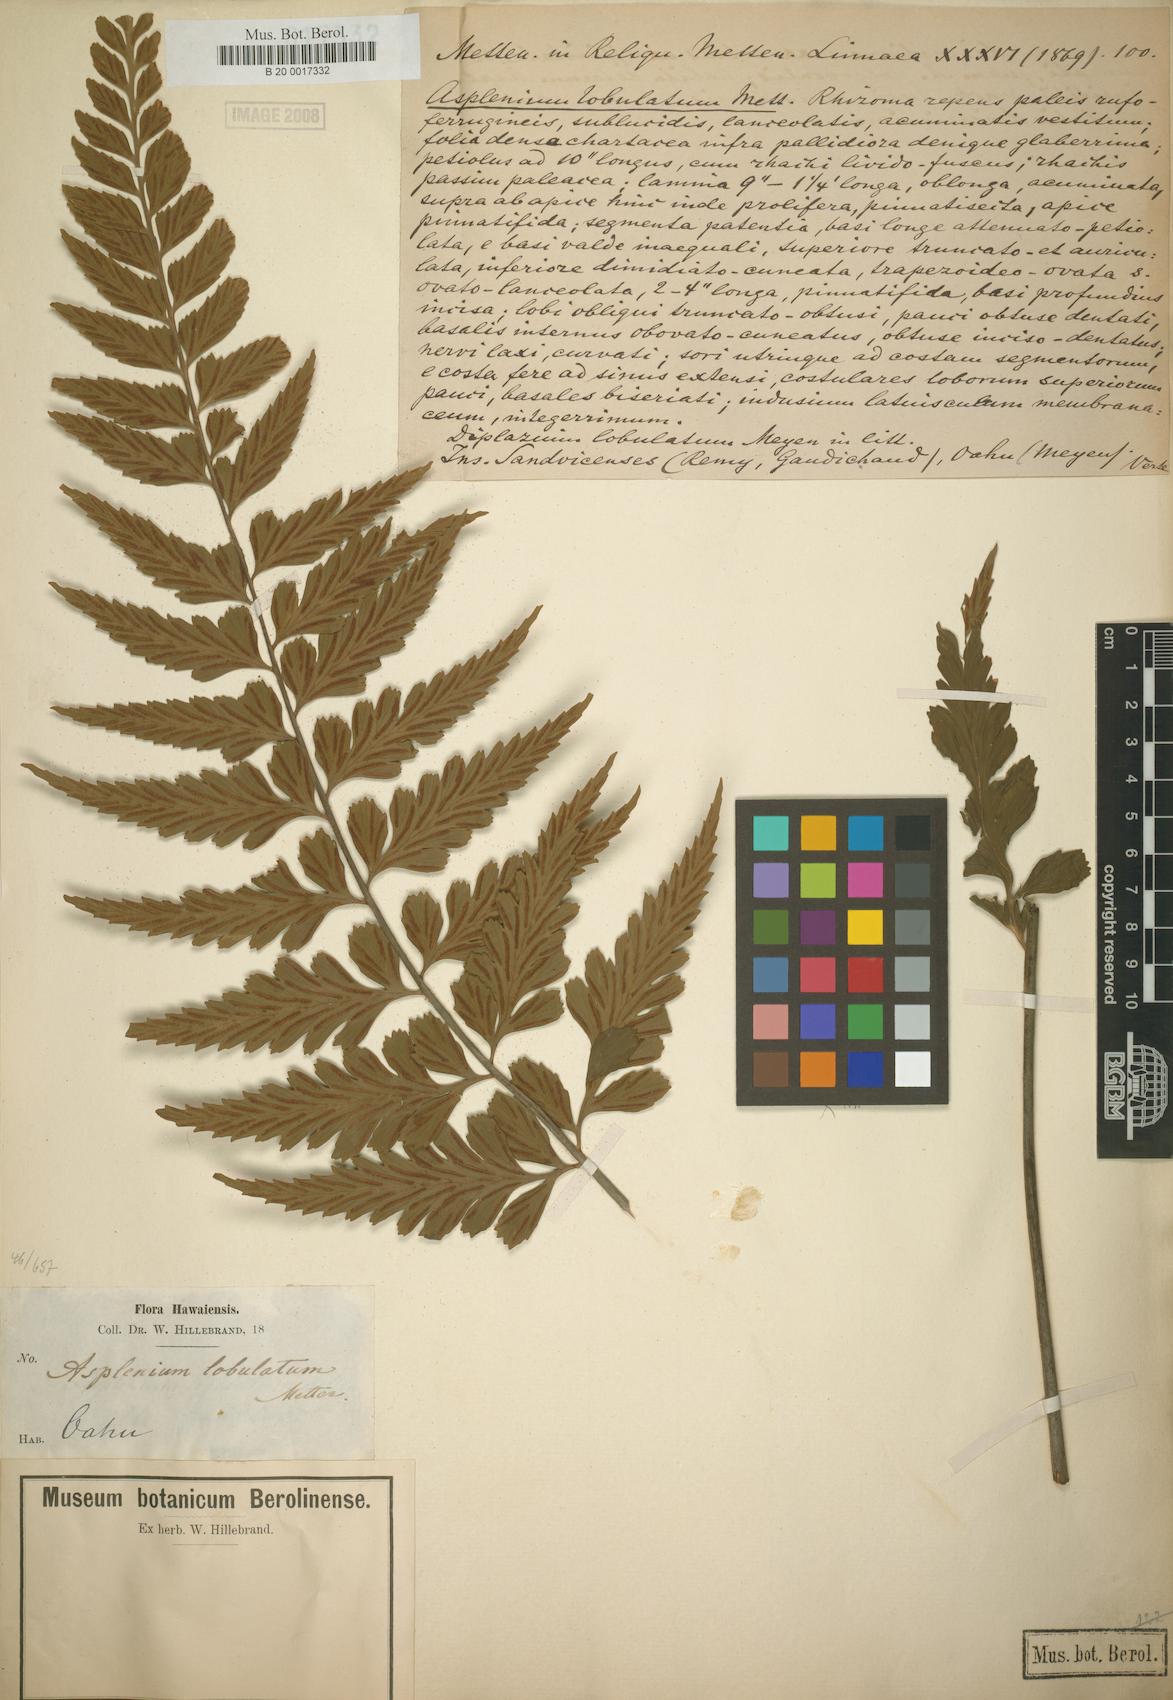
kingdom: Plantae
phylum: Tracheophyta
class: Polypodiopsida
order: Polypodiales
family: Aspleniaceae
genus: Asplenium
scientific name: Asplenium lobulatum
